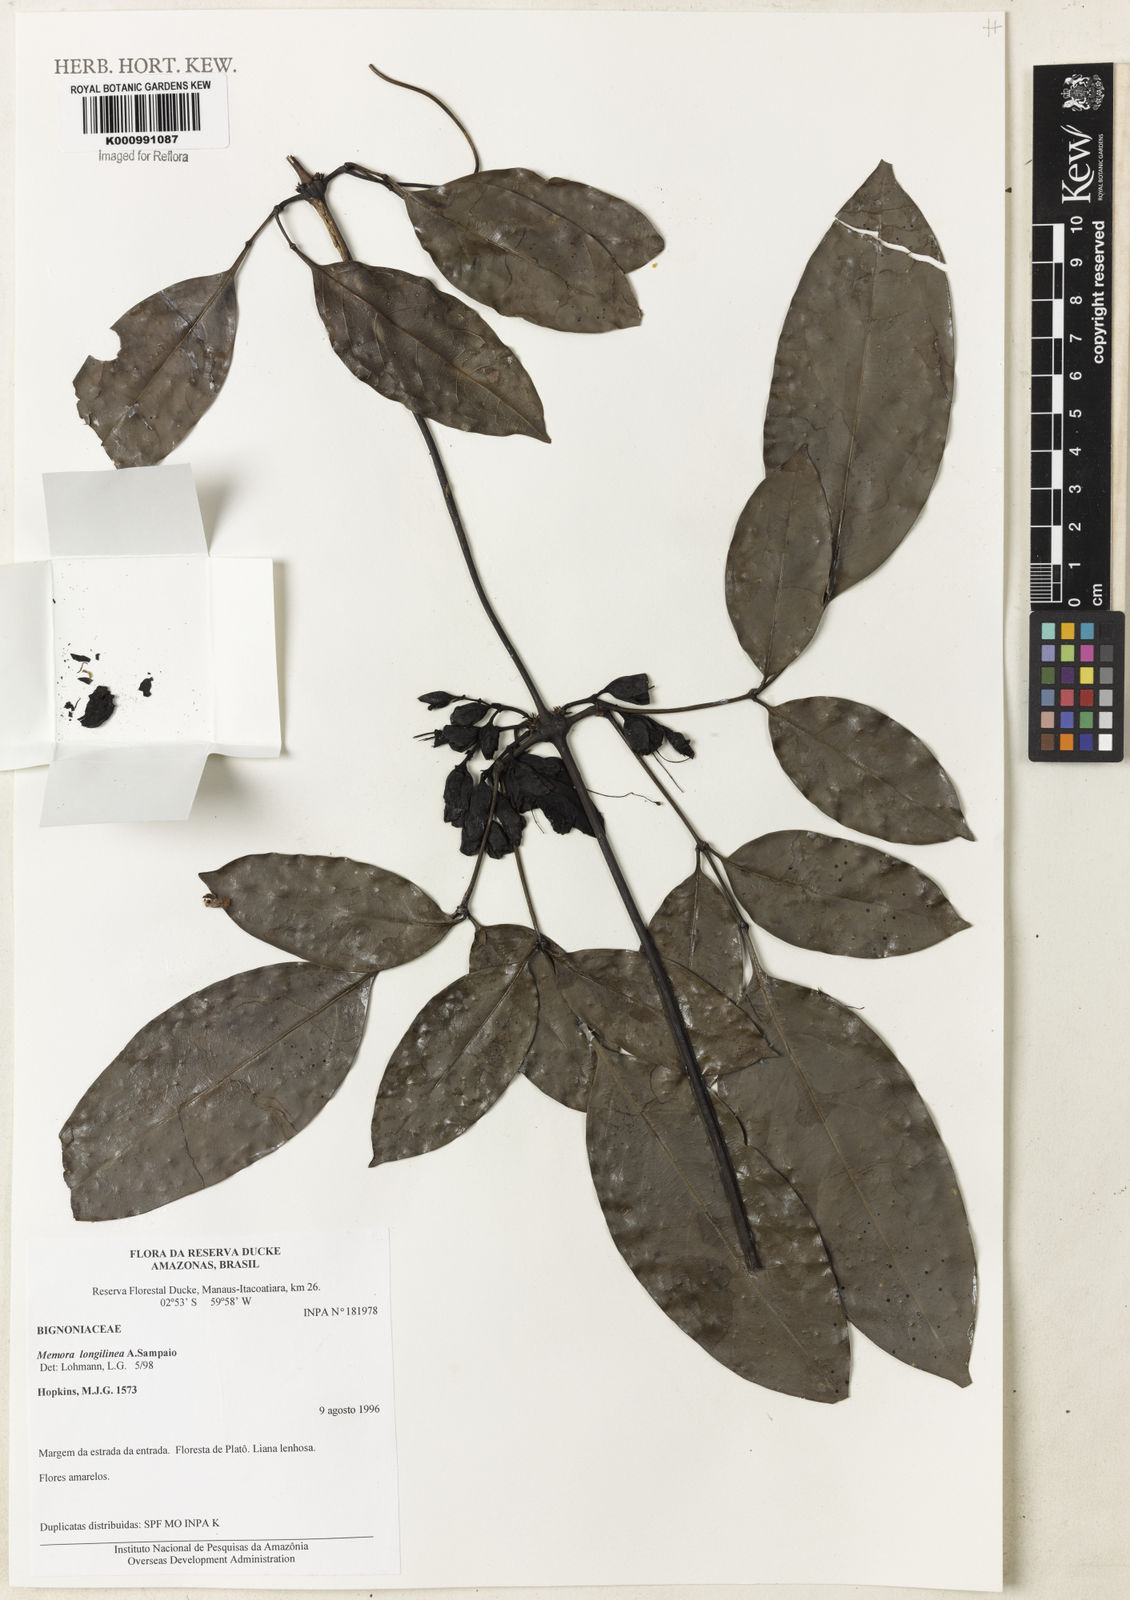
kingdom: Plantae
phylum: Tracheophyta
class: Magnoliopsida
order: Lamiales
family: Bignoniaceae
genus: Adenocalymma
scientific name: Adenocalymma longilineum
